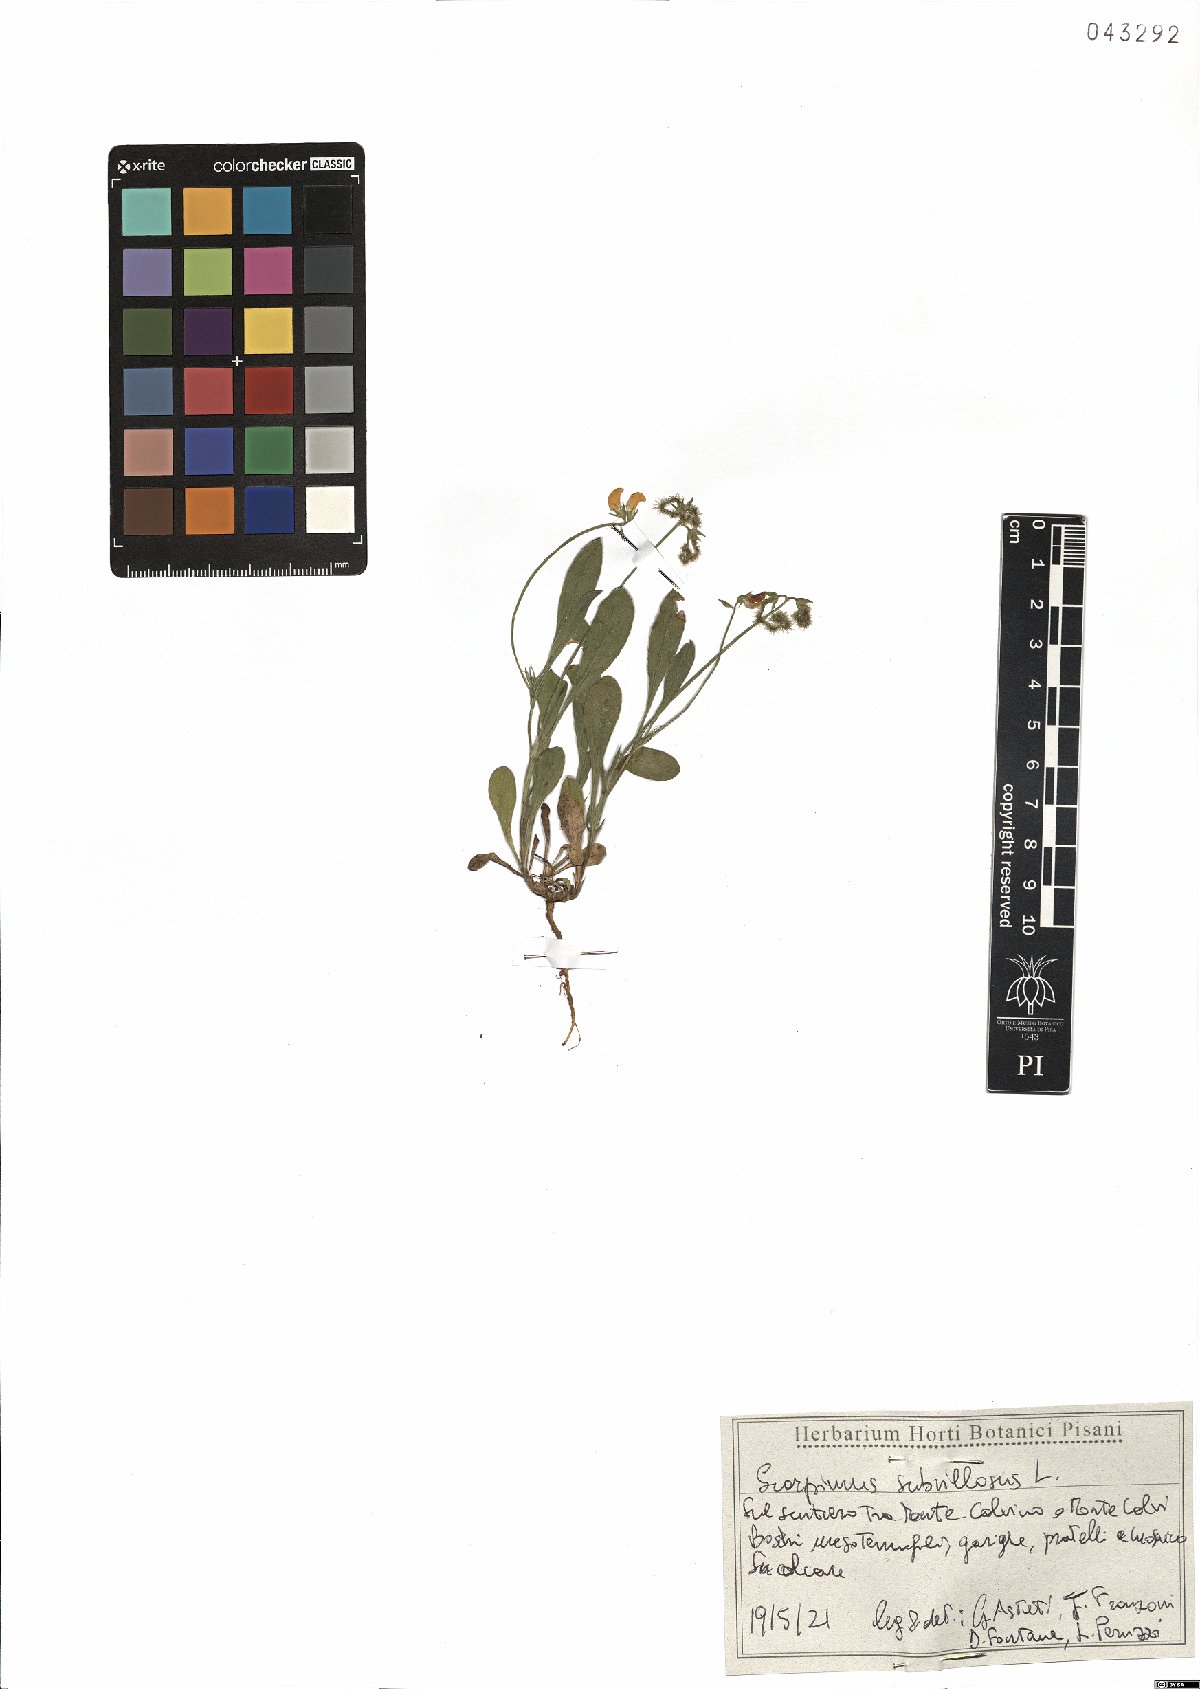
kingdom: Plantae
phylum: Tracheophyta
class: Magnoliopsida
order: Fabales
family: Fabaceae
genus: Scorpiurus
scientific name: Scorpiurus muricatus
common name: Caterpillar-plant
